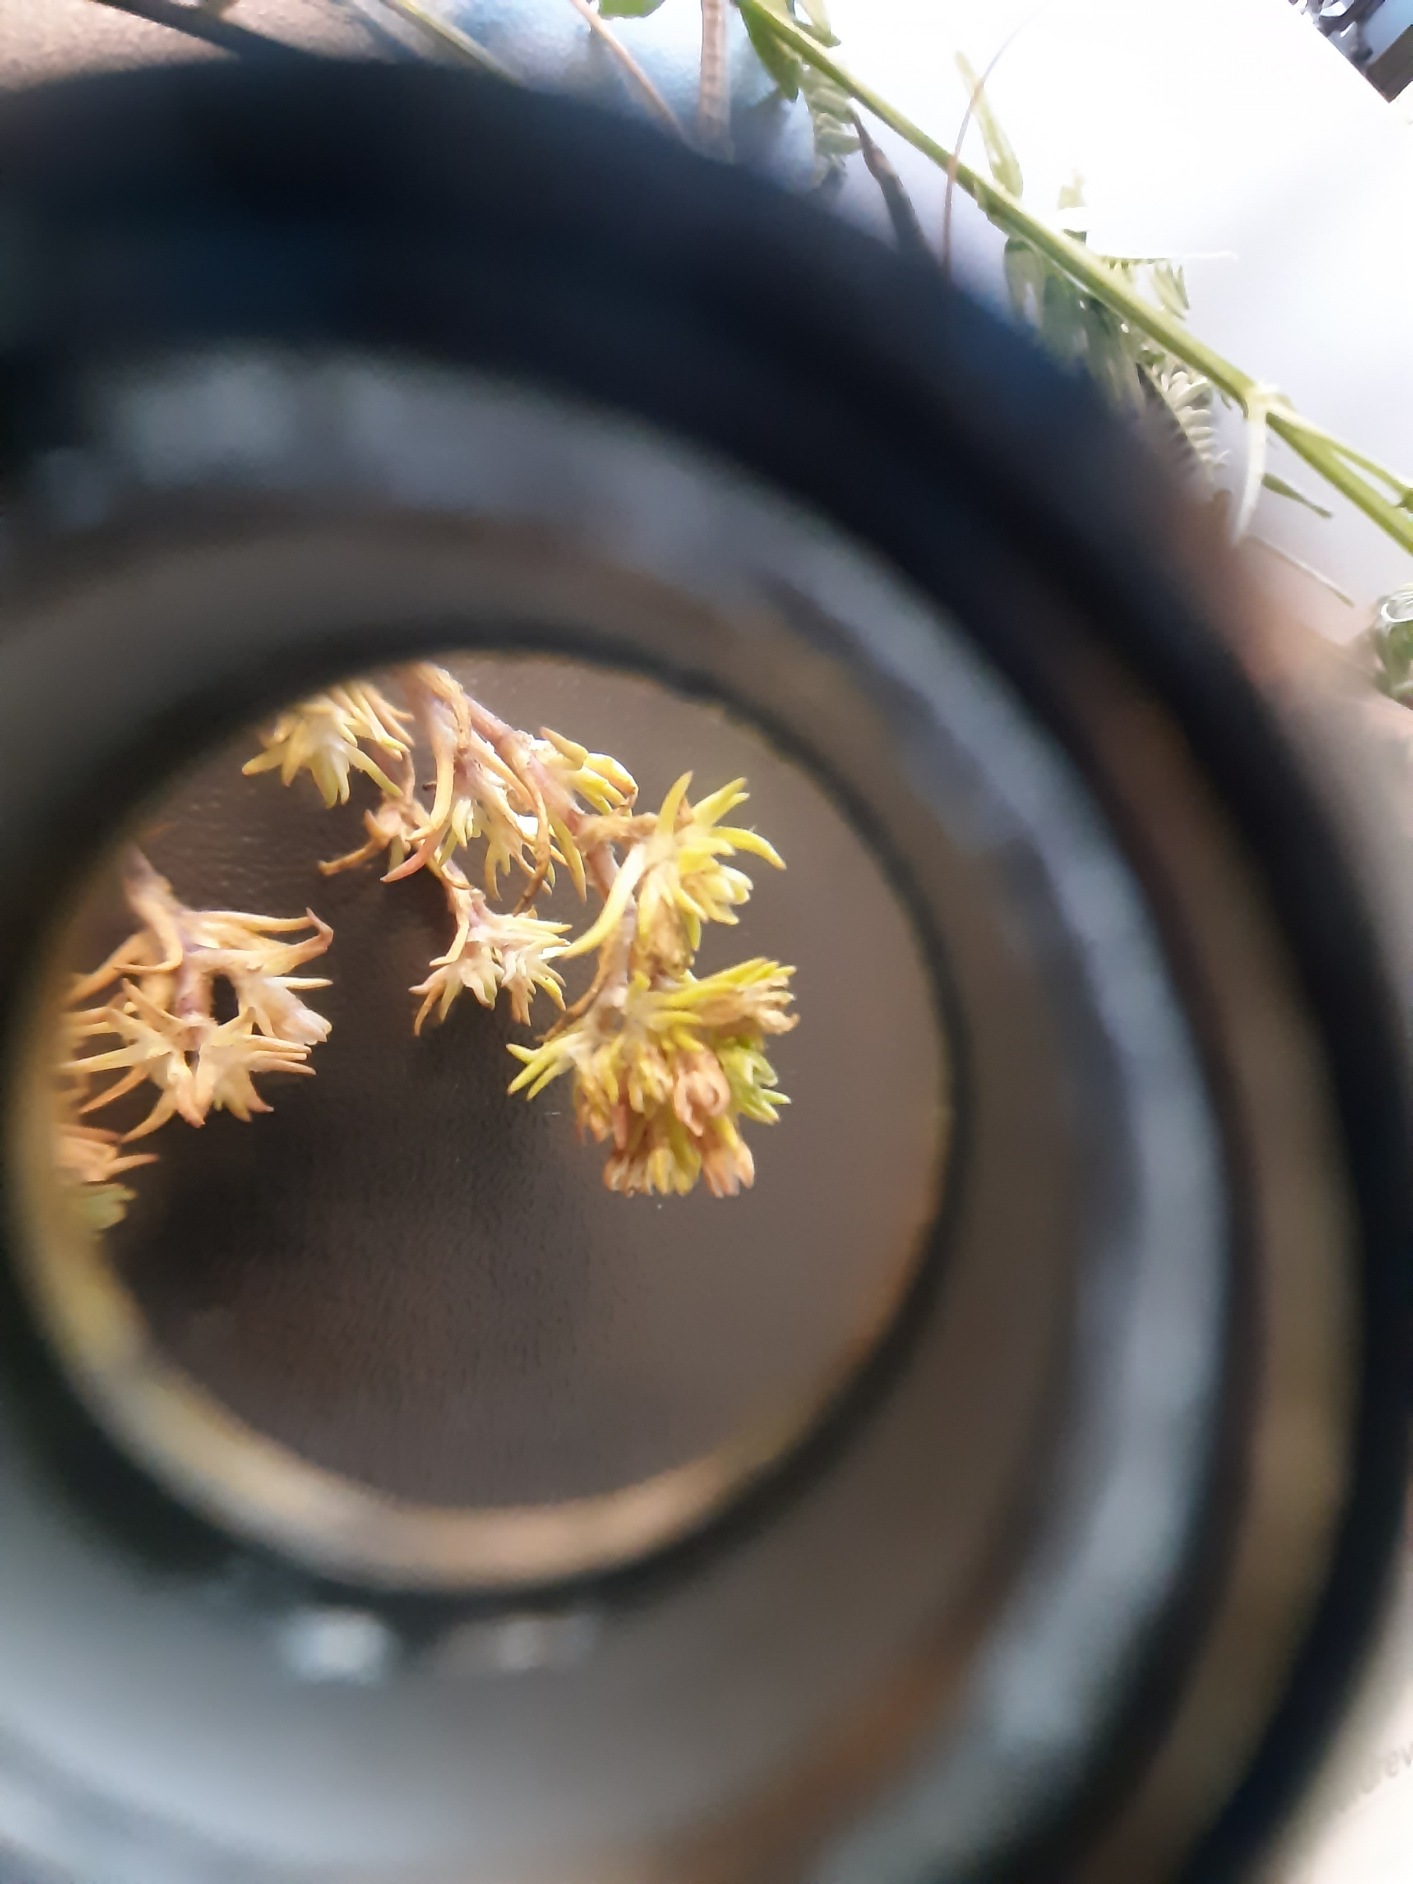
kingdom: Plantae
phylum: Tracheophyta
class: Magnoliopsida
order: Caryophyllales
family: Caryophyllaceae
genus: Scleranthus
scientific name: Scleranthus annuus
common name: Enårig knavel
